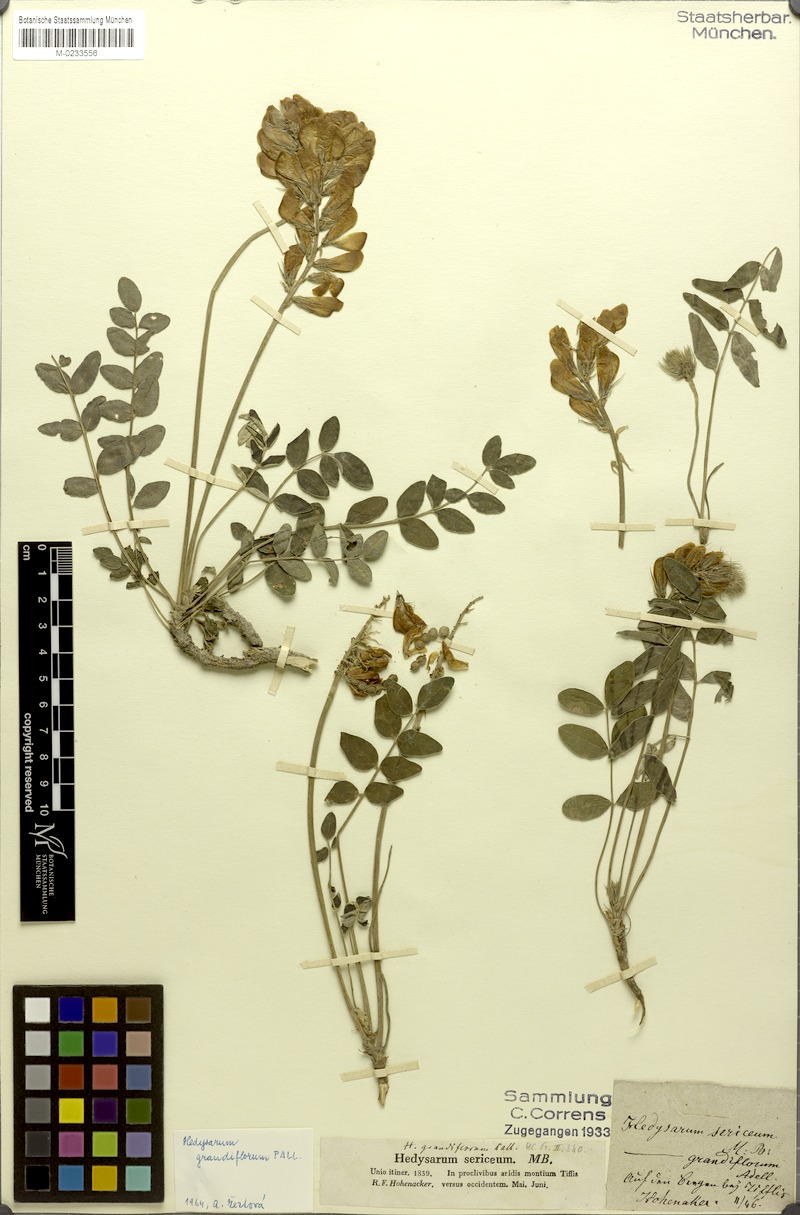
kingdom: Plantae
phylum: Tracheophyta
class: Magnoliopsida
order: Fabales
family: Fabaceae
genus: Hedysarum
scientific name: Hedysarum grandiflorum
